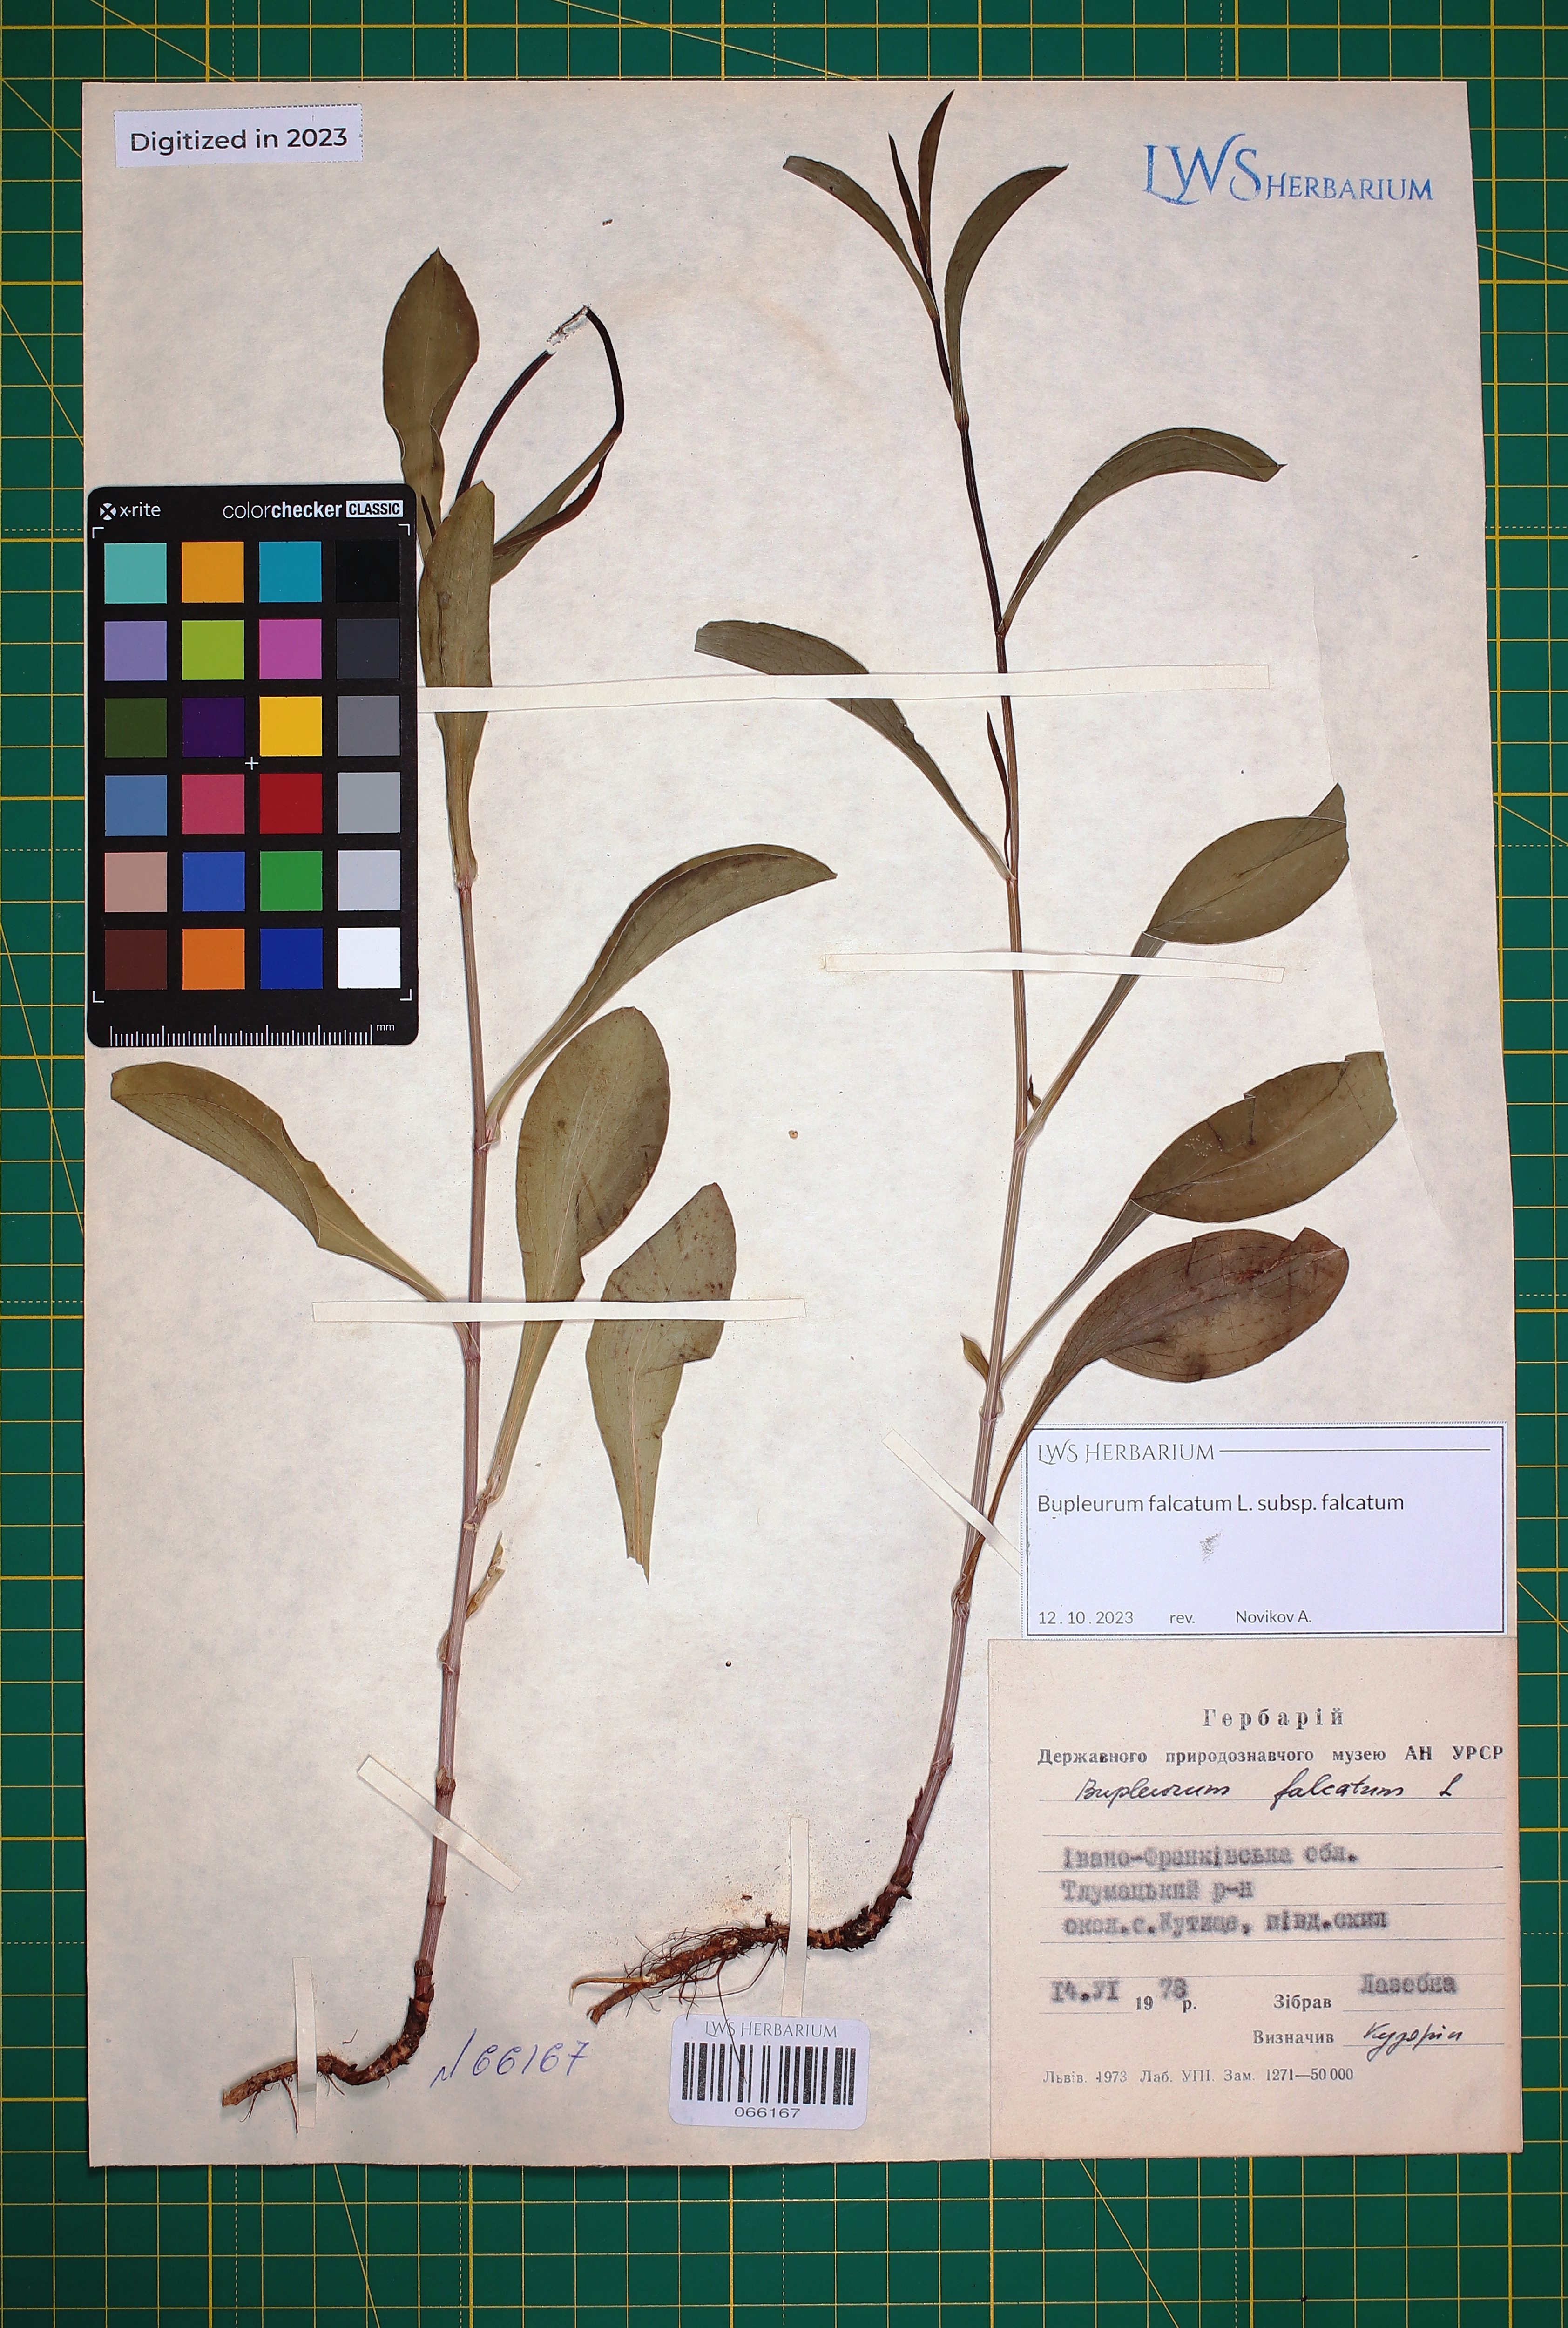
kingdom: Plantae
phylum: Tracheophyta
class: Magnoliopsida
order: Apiales
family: Apiaceae
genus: Bupleurum
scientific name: Bupleurum falcatum
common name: Sickle-leaved hare's-ear
